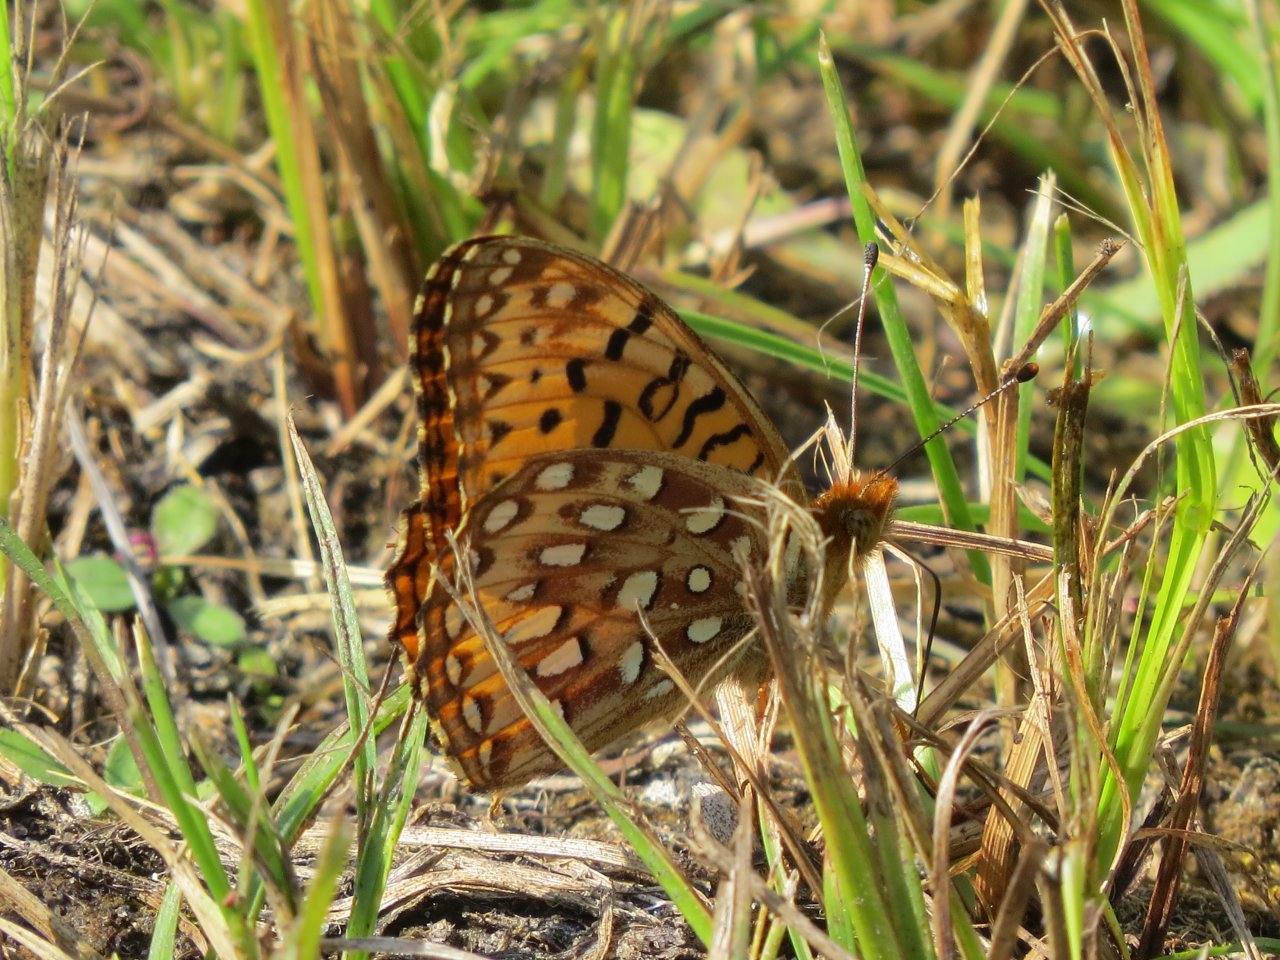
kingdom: Animalia
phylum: Arthropoda
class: Insecta
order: Lepidoptera
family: Nymphalidae
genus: Speyeria
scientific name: Speyeria atlantis
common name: Northwestern Fritillary
